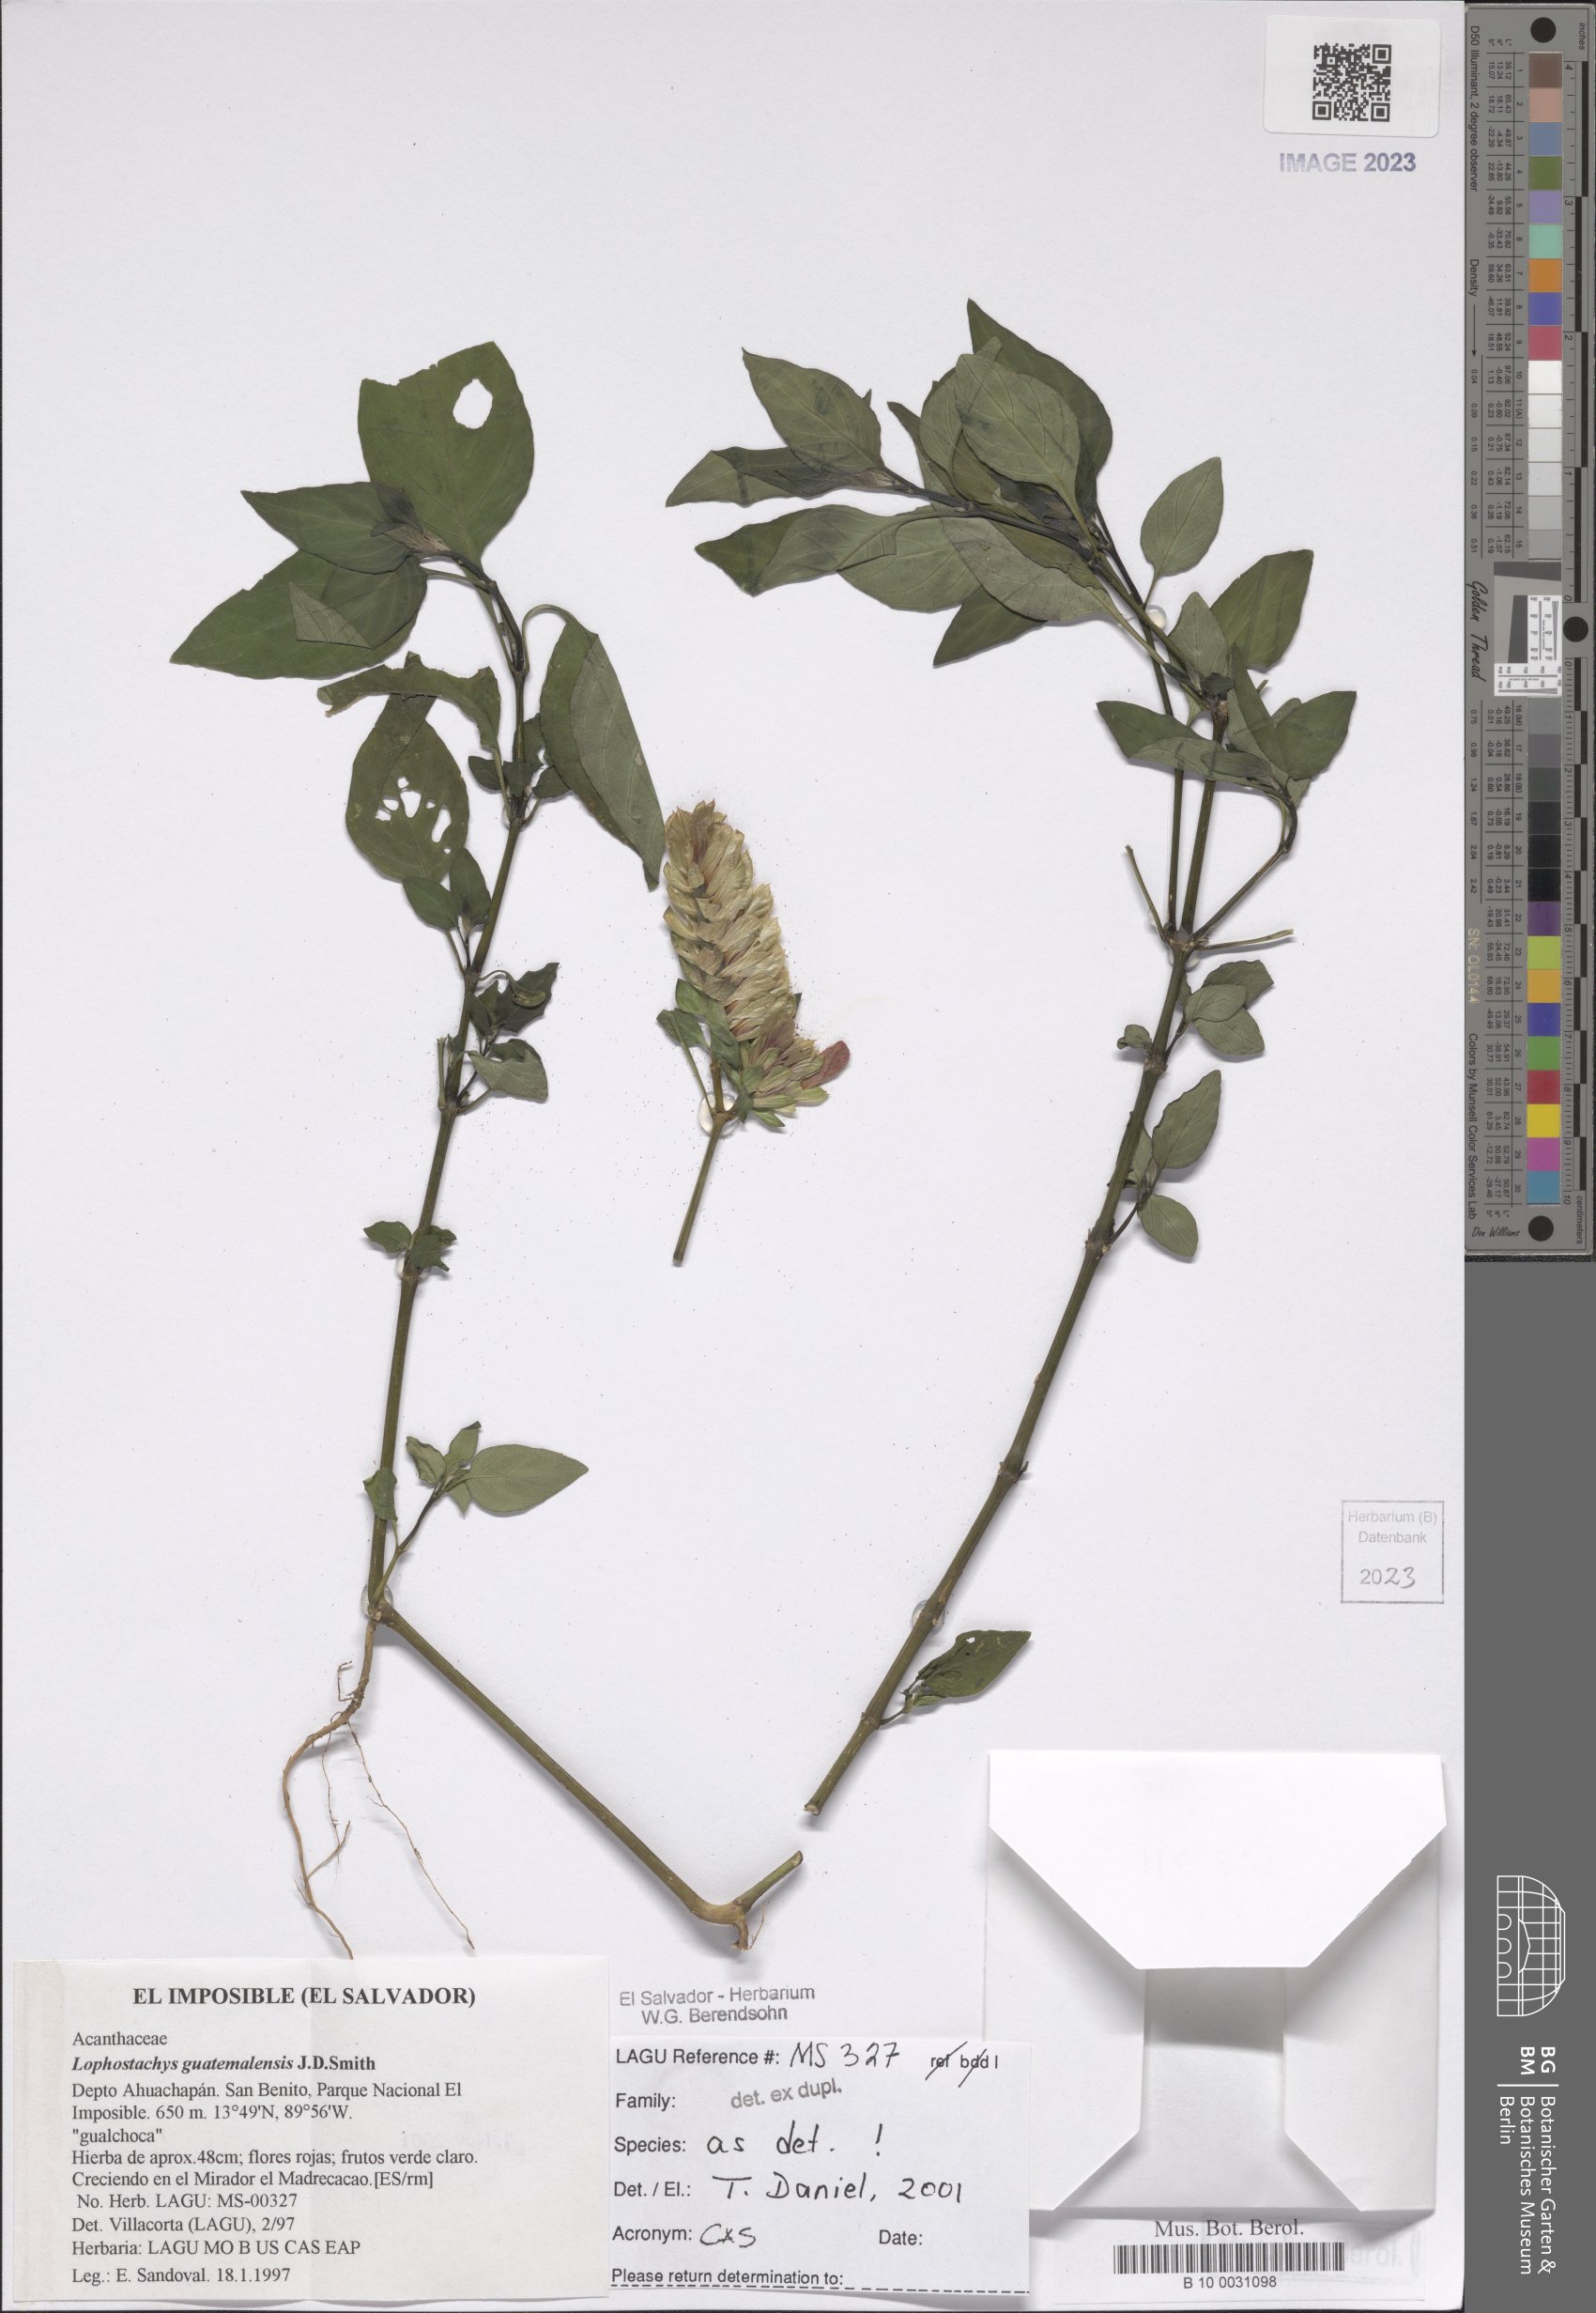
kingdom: Plantae
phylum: Tracheophyta
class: Magnoliopsida
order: Lamiales
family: Acanthaceae
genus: Lepidagathis
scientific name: Lepidagathis guatemalensis
